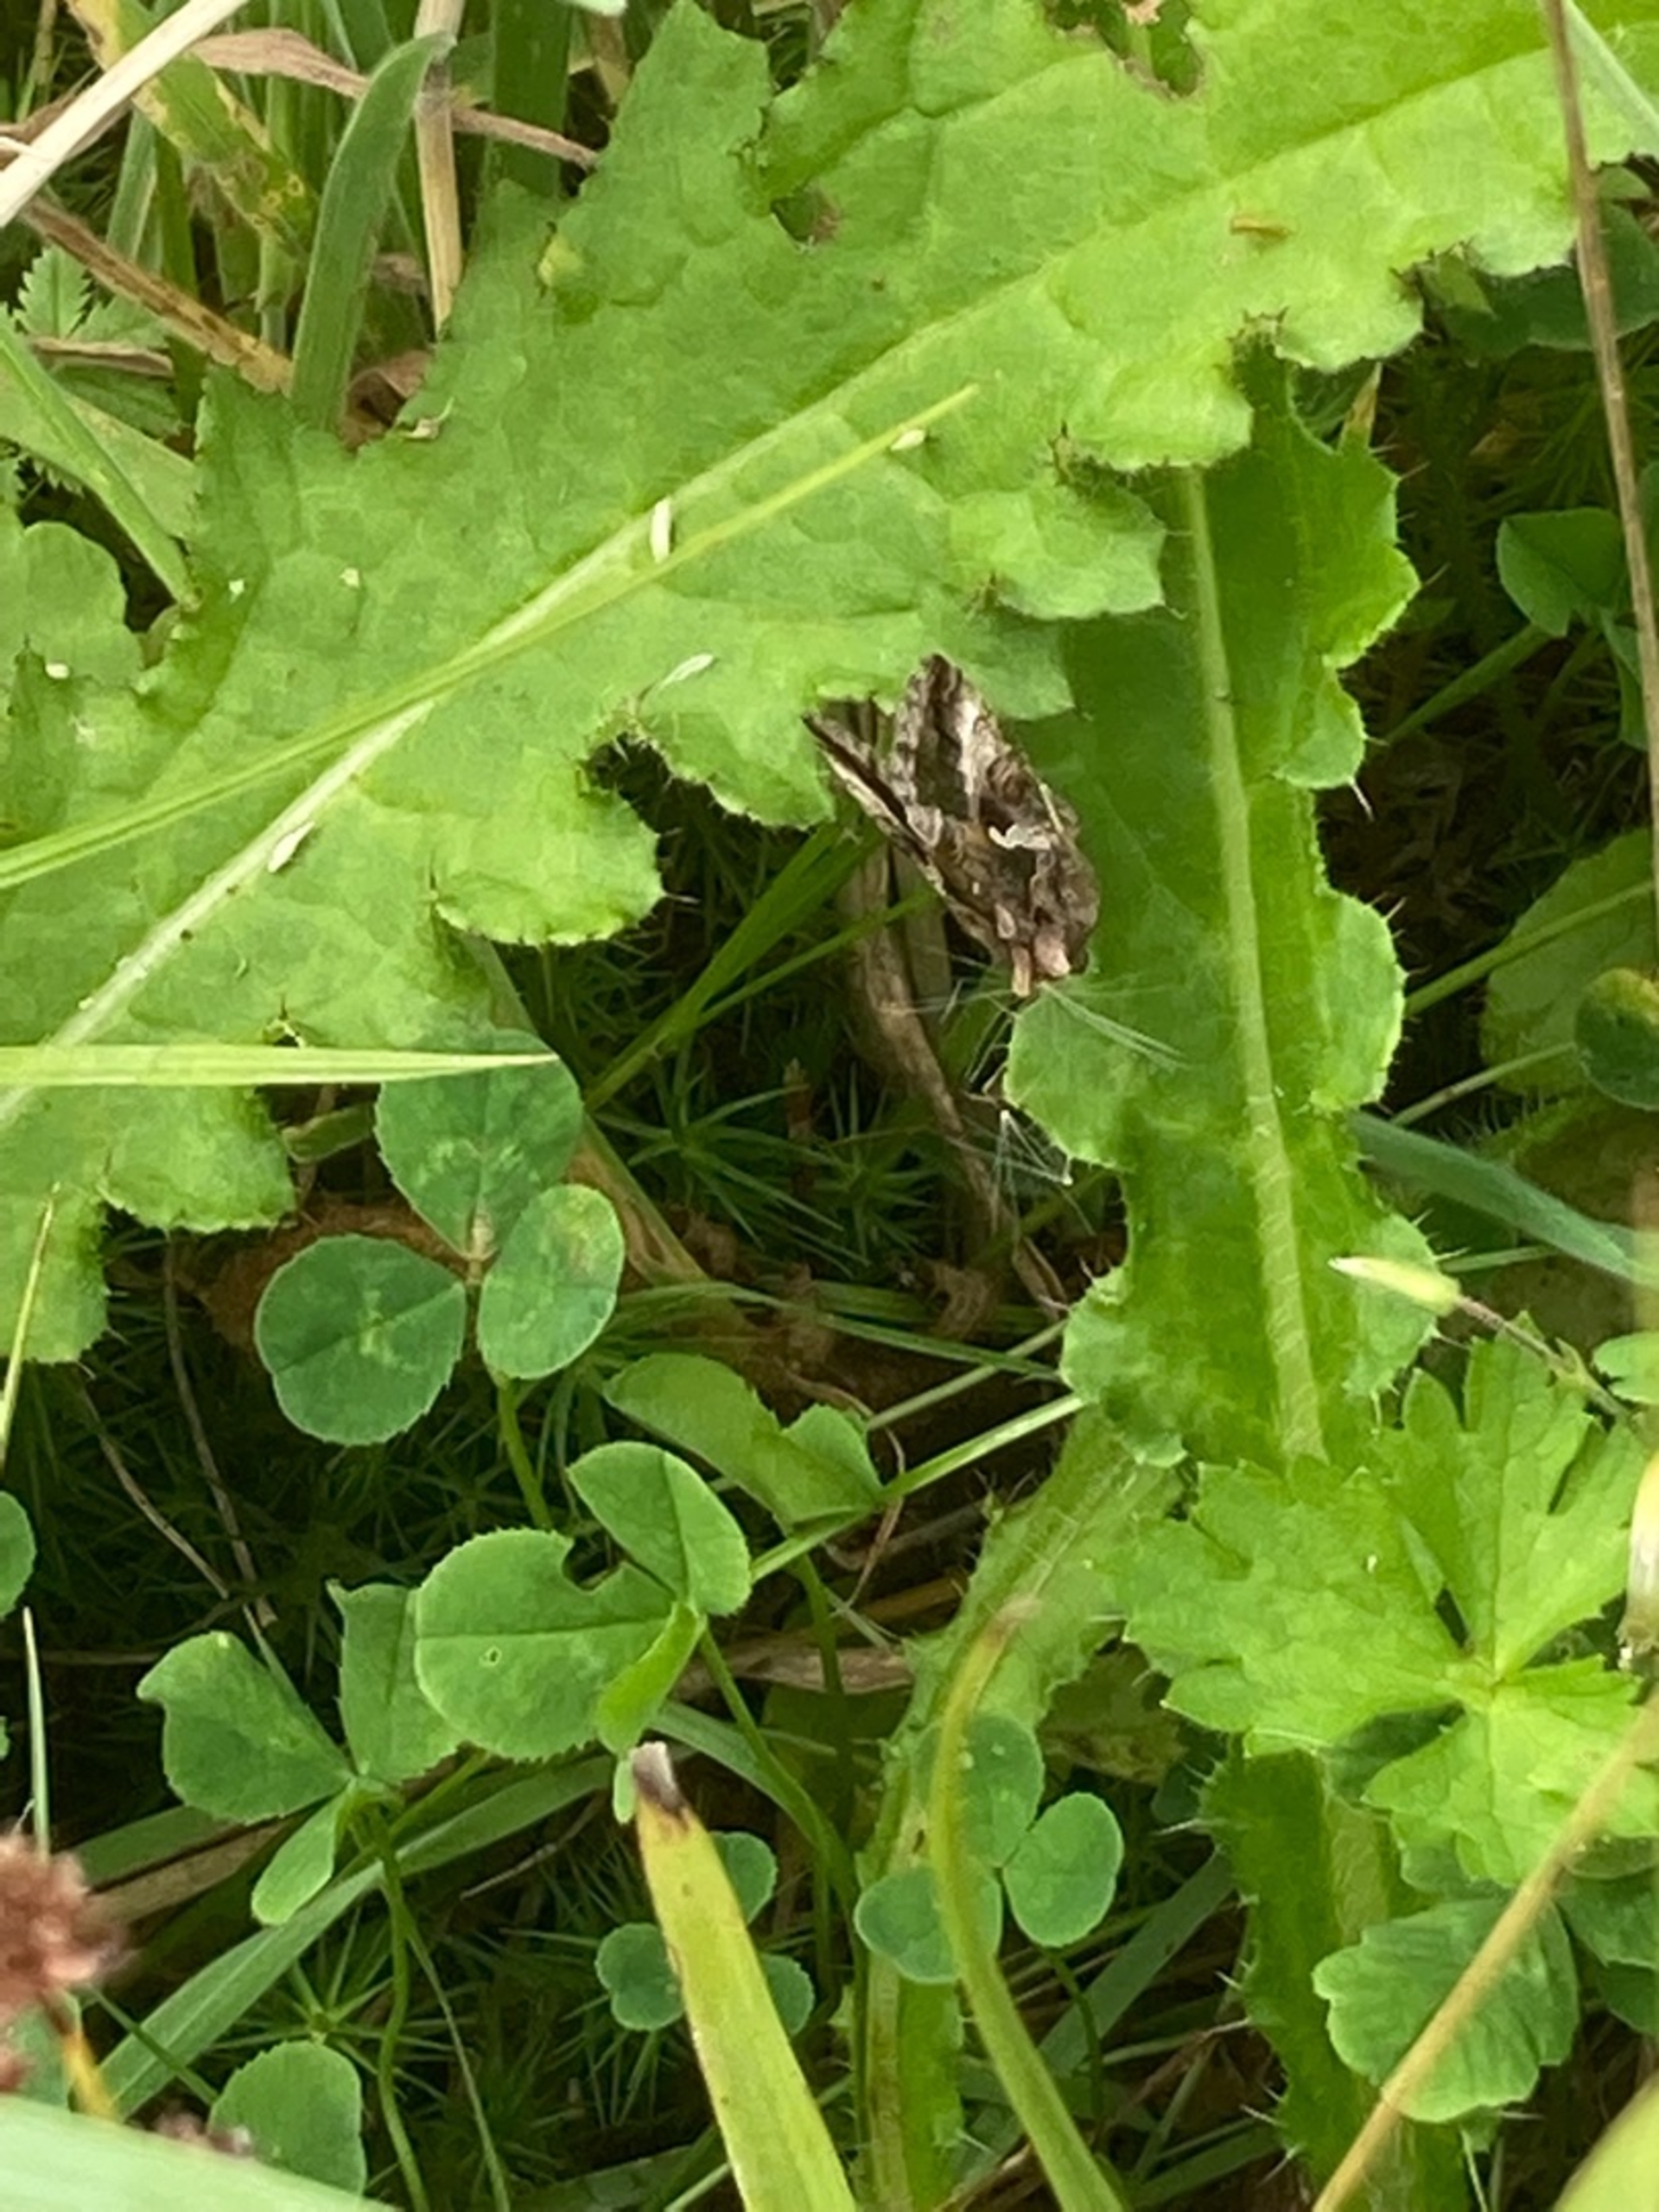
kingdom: Animalia
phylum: Arthropoda
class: Insecta
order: Lepidoptera
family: Noctuidae
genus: Autographa
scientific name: Autographa gamma
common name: Gammaugle
